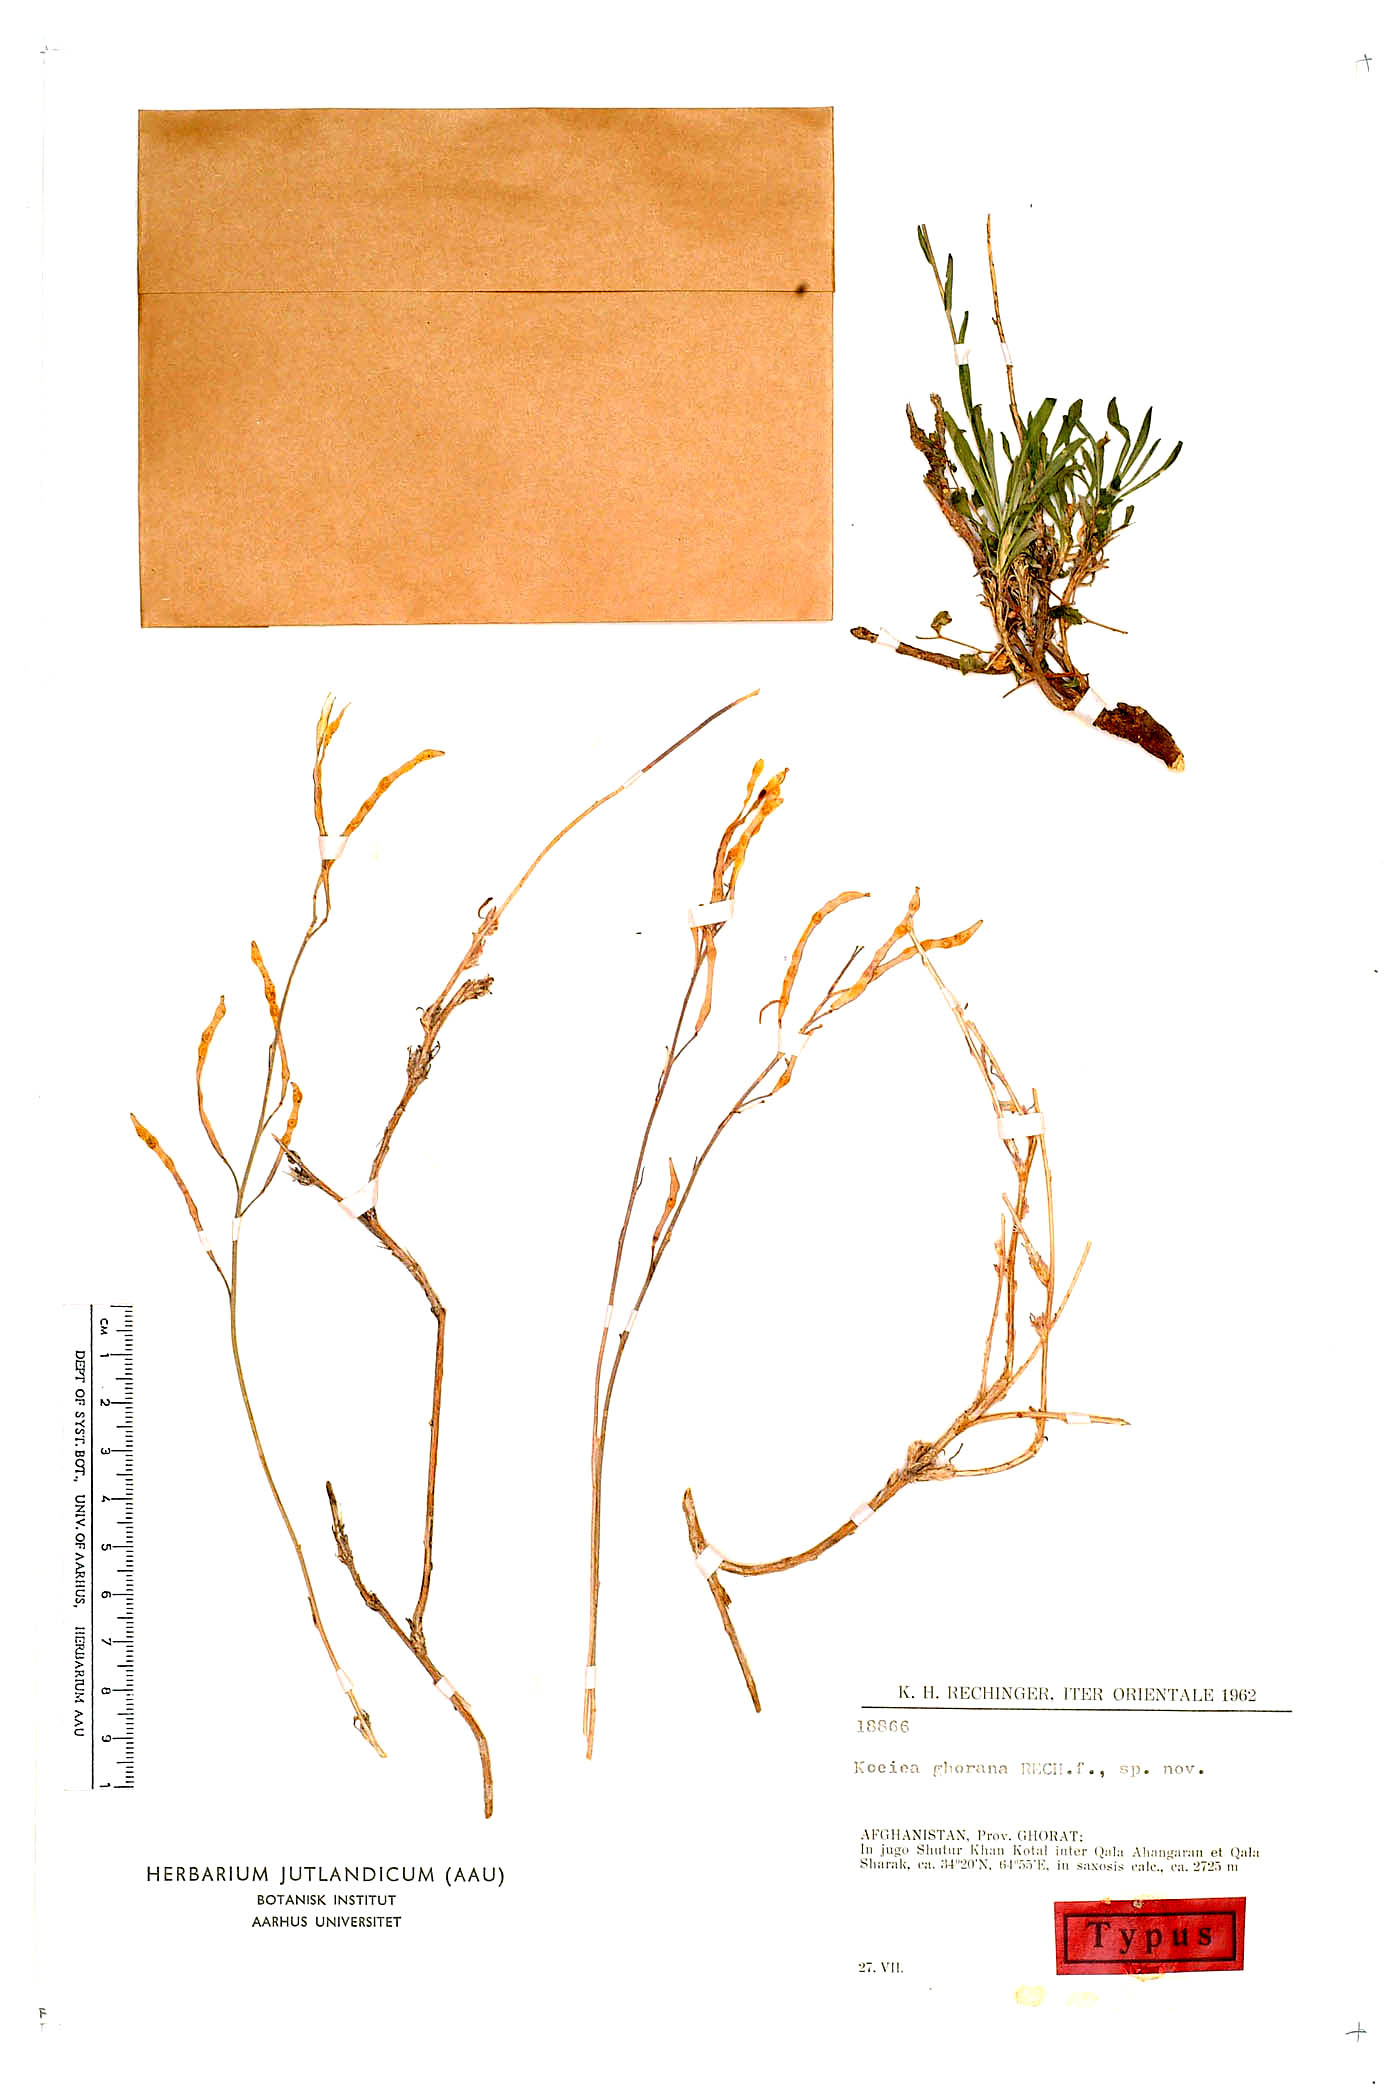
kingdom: Plantae
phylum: Tracheophyta
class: Magnoliopsida
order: Brassicales
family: Brassicaceae
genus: Rhammatophyllum
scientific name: Rhammatophyllum ghoranum
